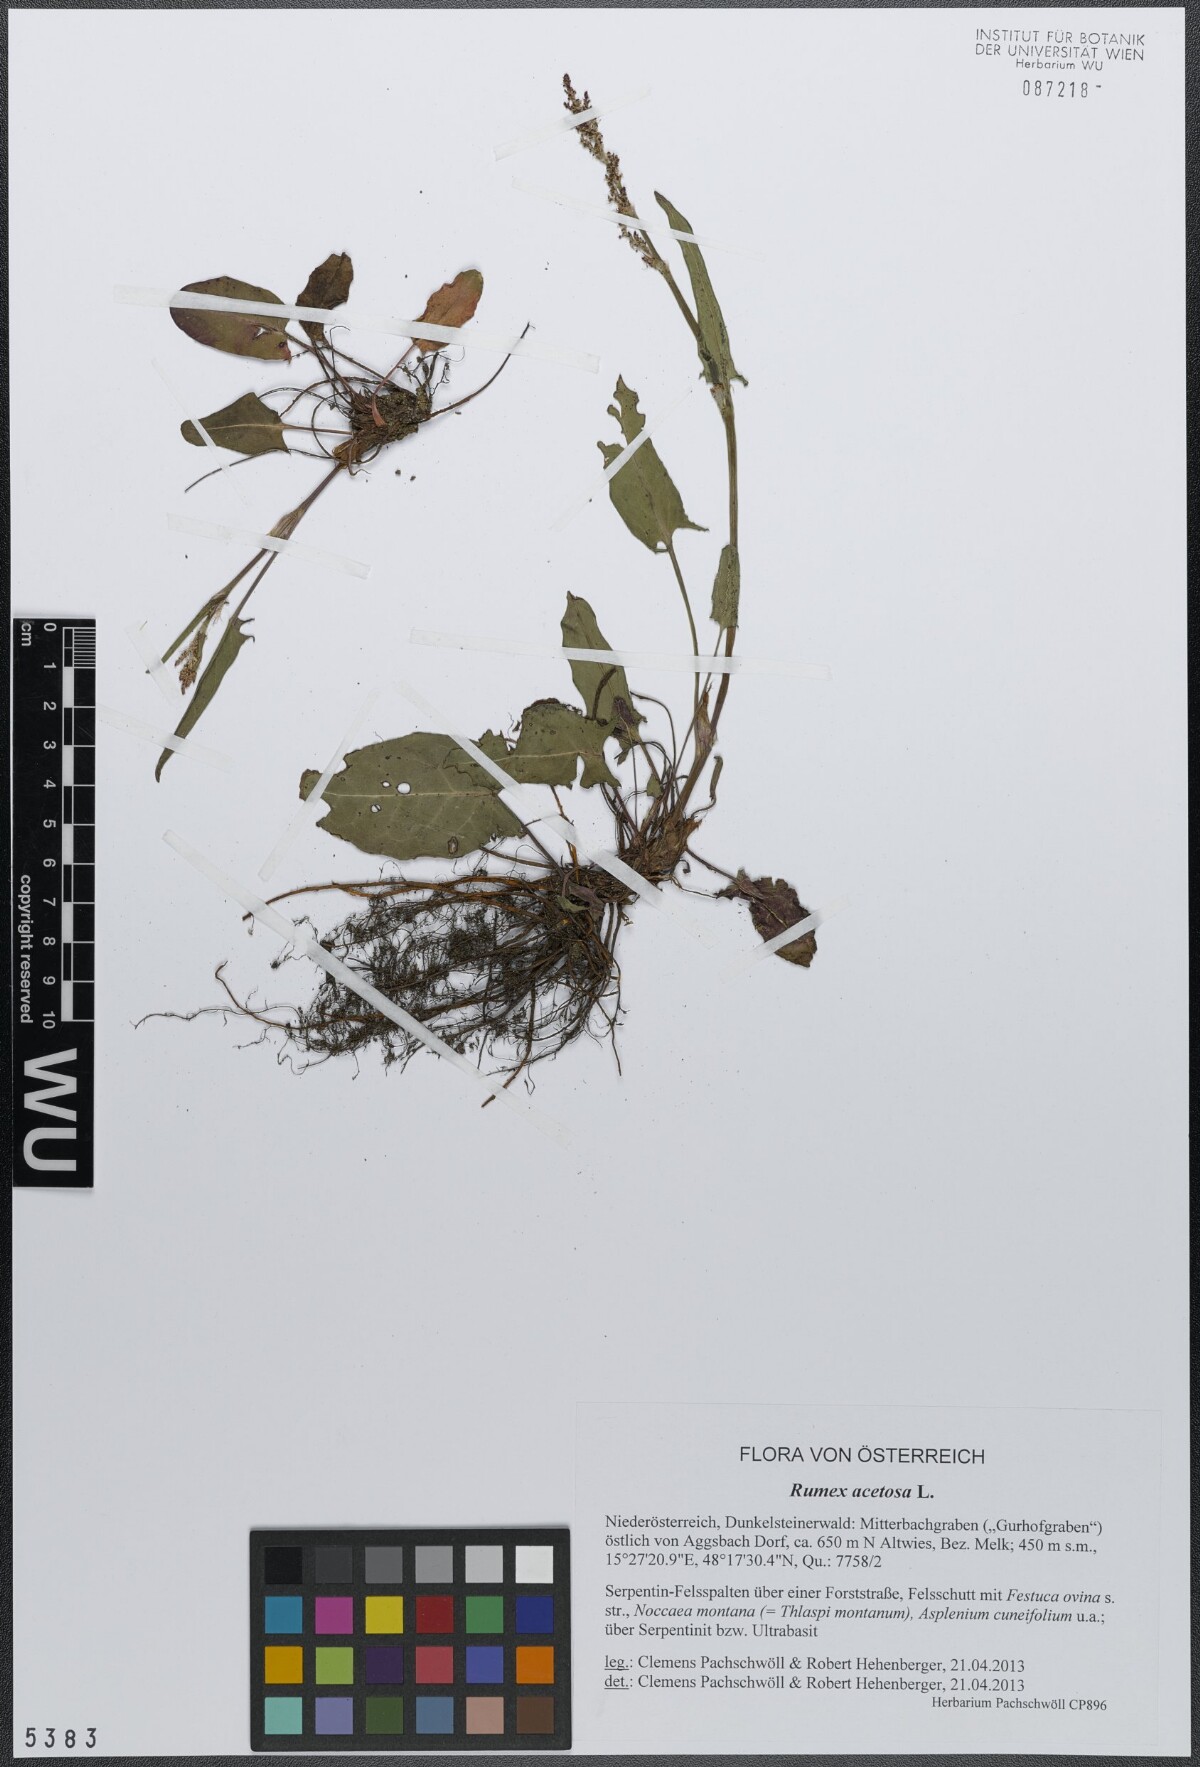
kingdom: Plantae
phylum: Tracheophyta
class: Magnoliopsida
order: Caryophyllales
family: Polygonaceae
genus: Rumex
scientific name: Rumex acetosa
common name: Garden sorrel
